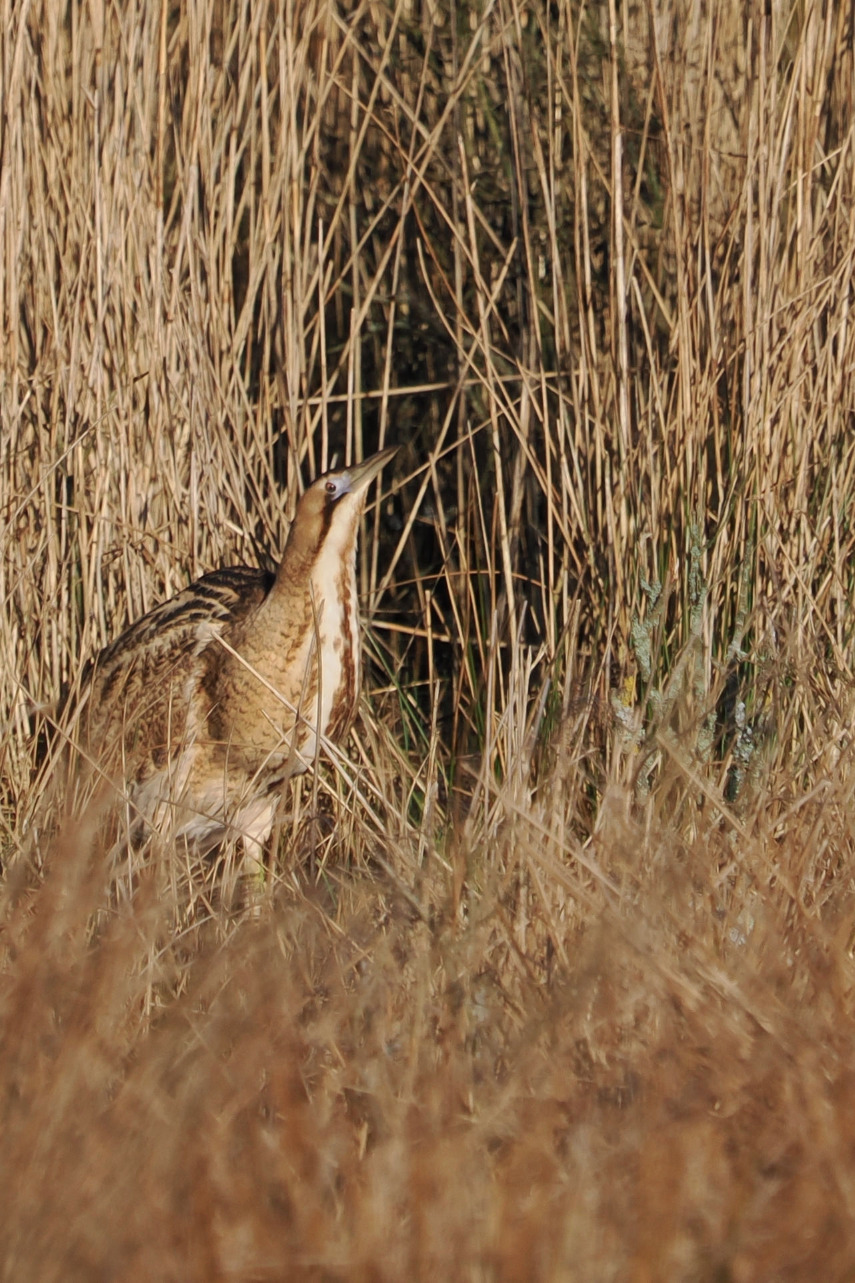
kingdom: Animalia
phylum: Chordata
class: Aves
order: Pelecaniformes
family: Ardeidae
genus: Botaurus
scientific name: Botaurus stellaris
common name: Rørdrum
